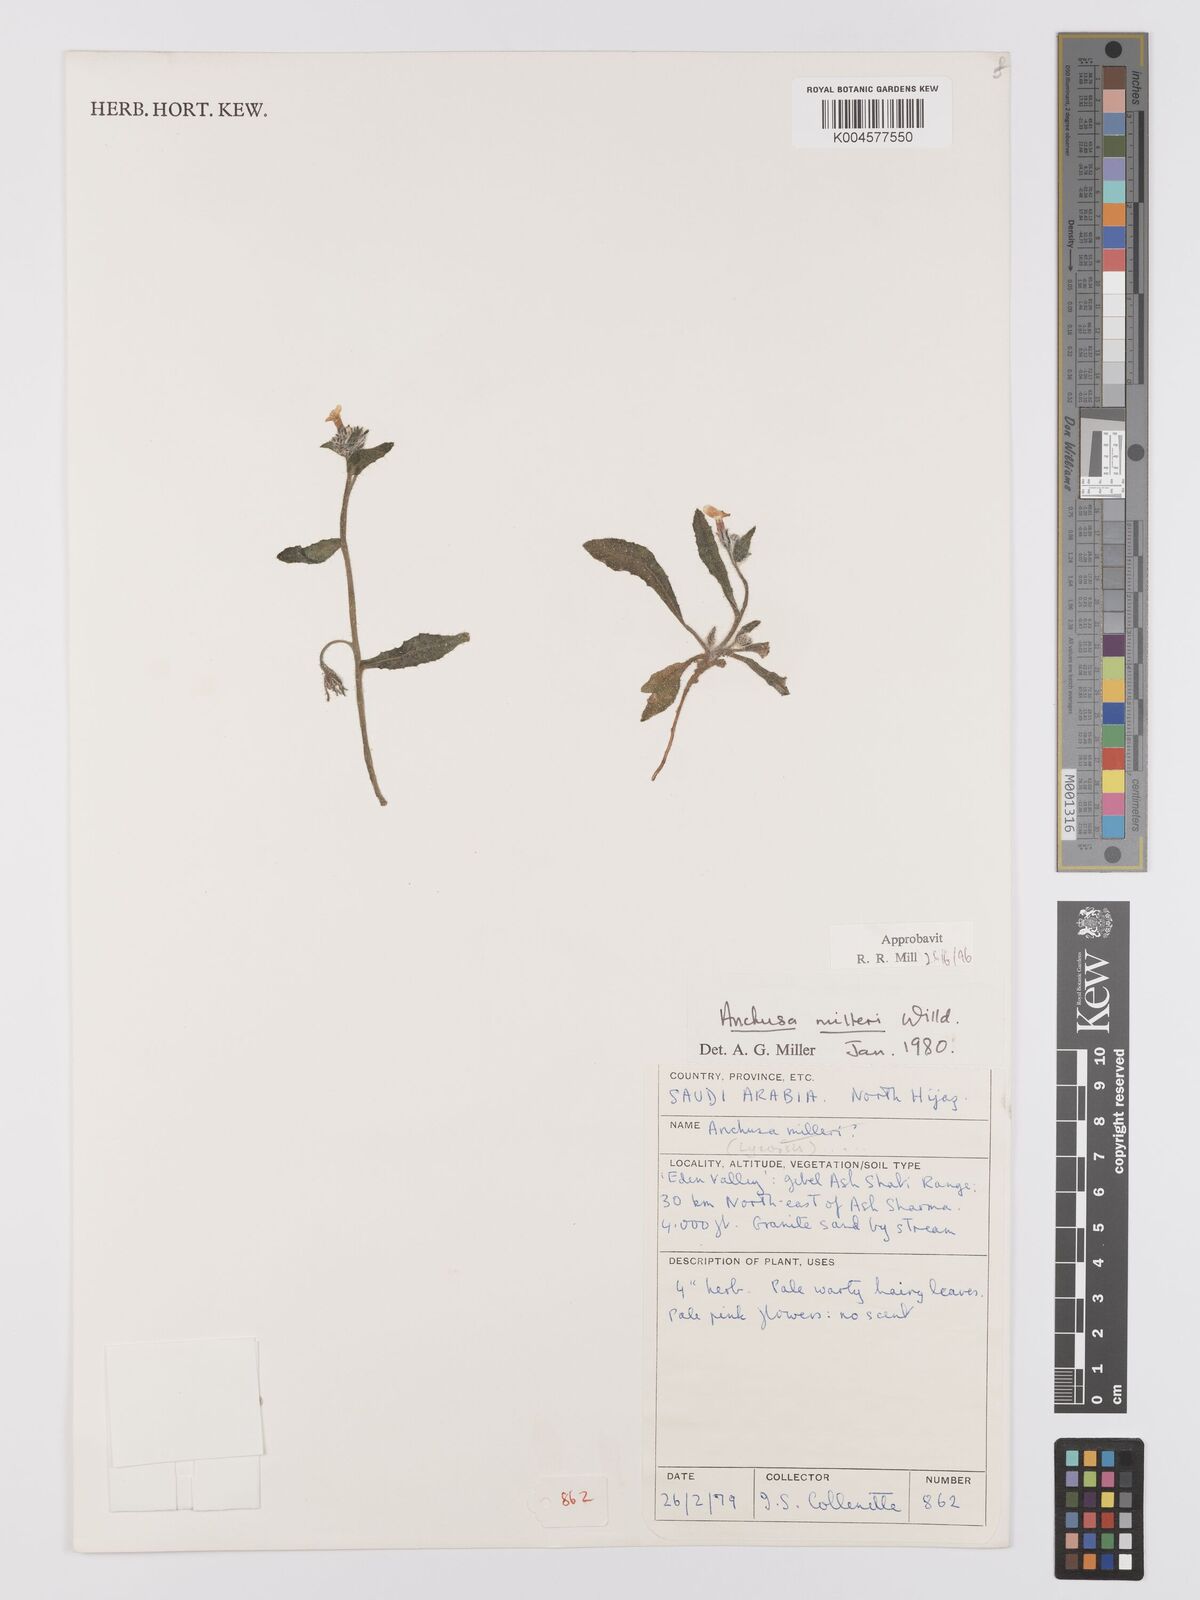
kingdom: Plantae
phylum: Tracheophyta
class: Magnoliopsida
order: Boraginales
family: Boraginaceae
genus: Anchusa
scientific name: Anchusa milleri
